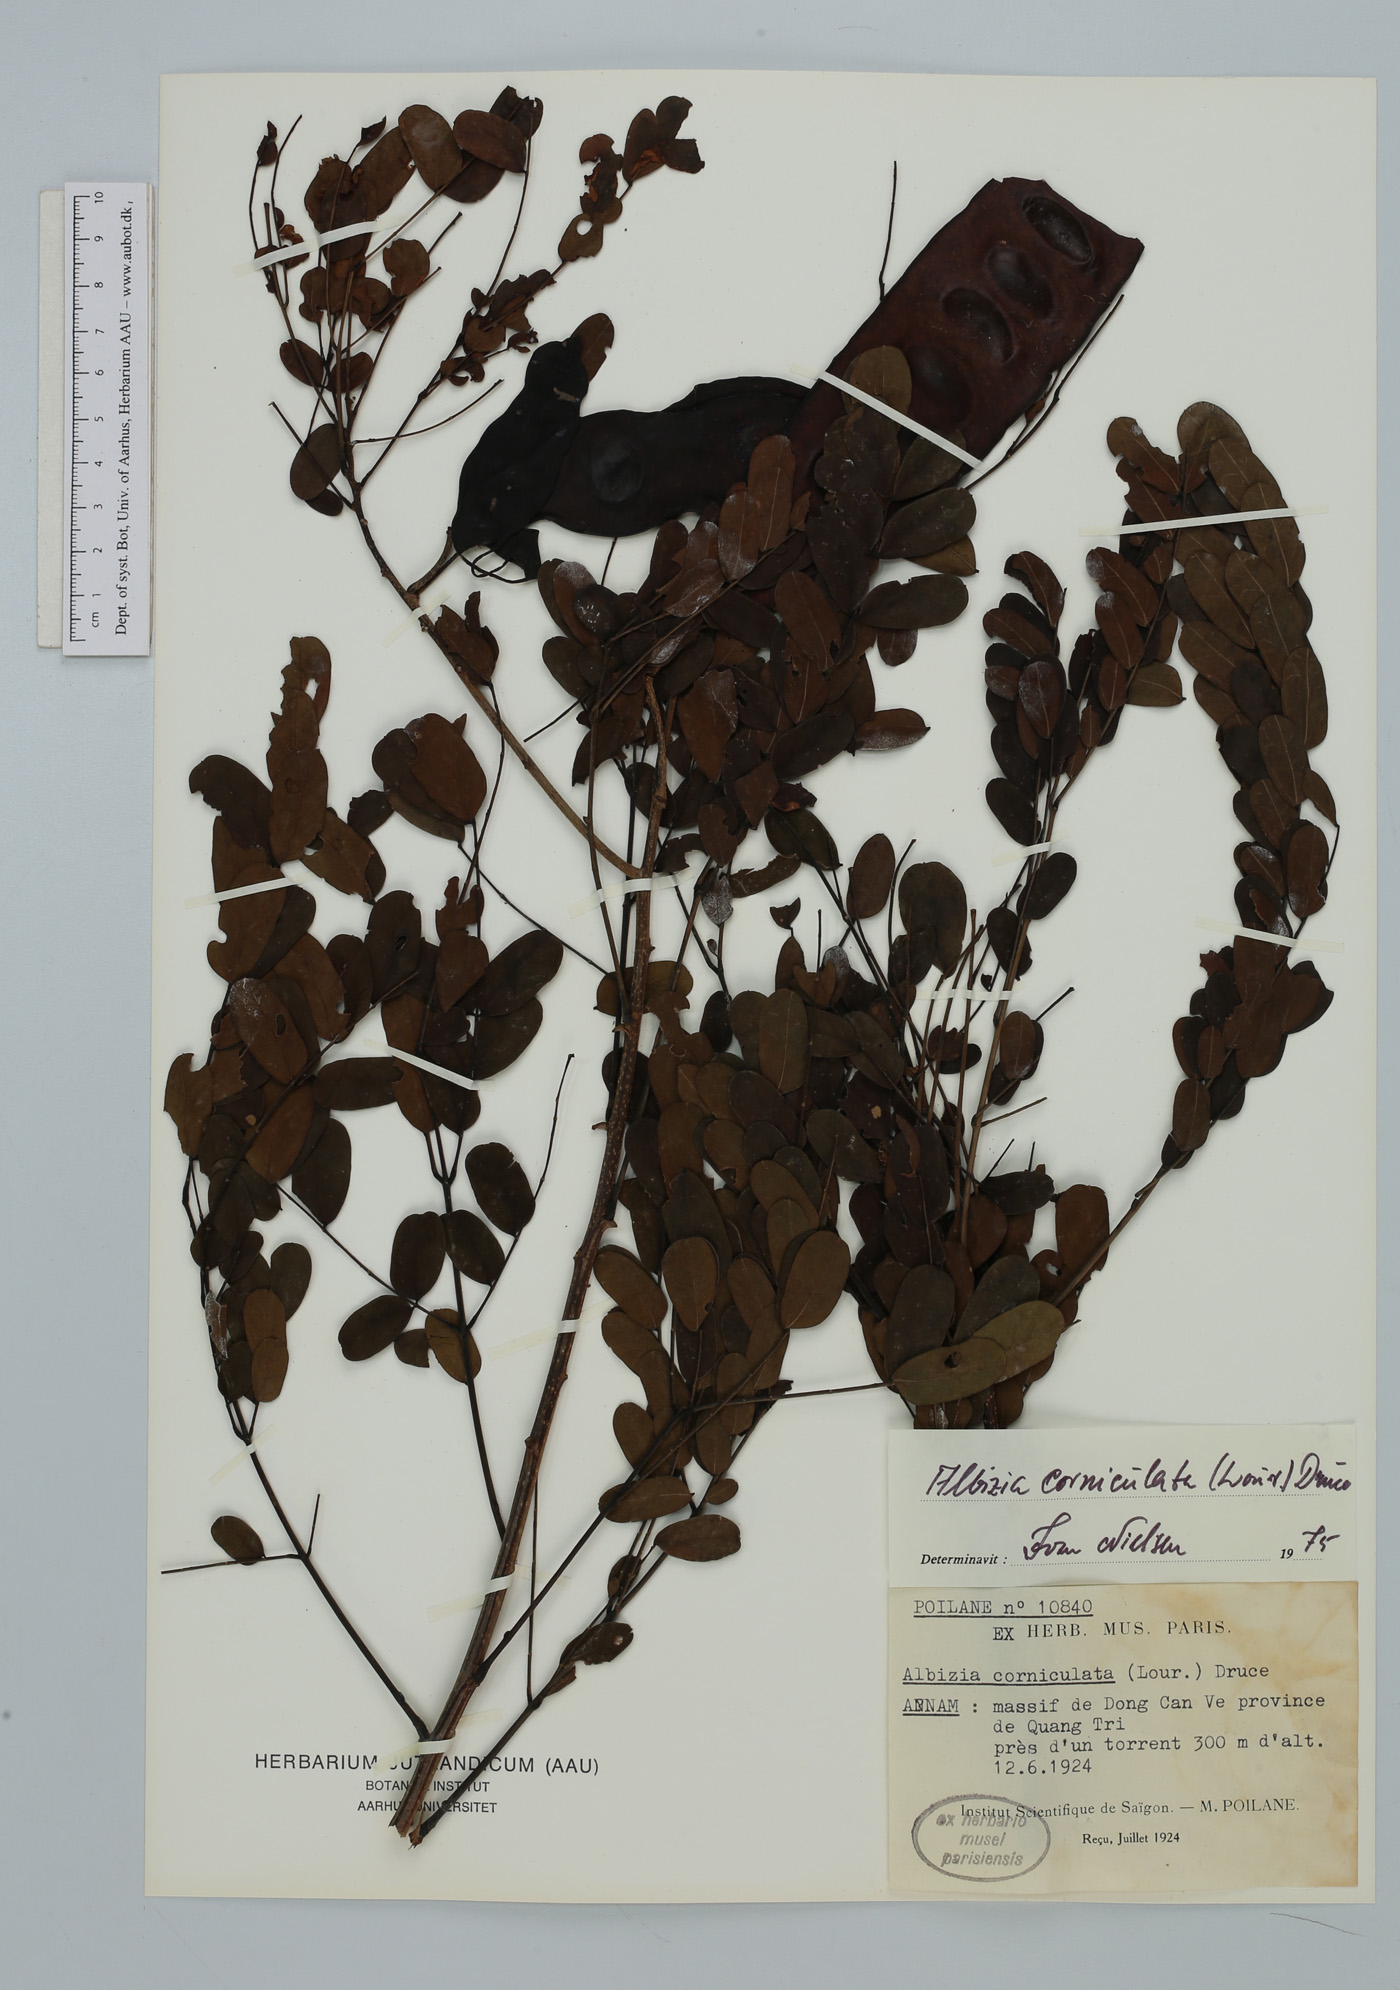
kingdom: Plantae
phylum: Tracheophyta
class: Magnoliopsida
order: Fabales
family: Fabaceae
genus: Albizia
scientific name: Albizia corniculata
